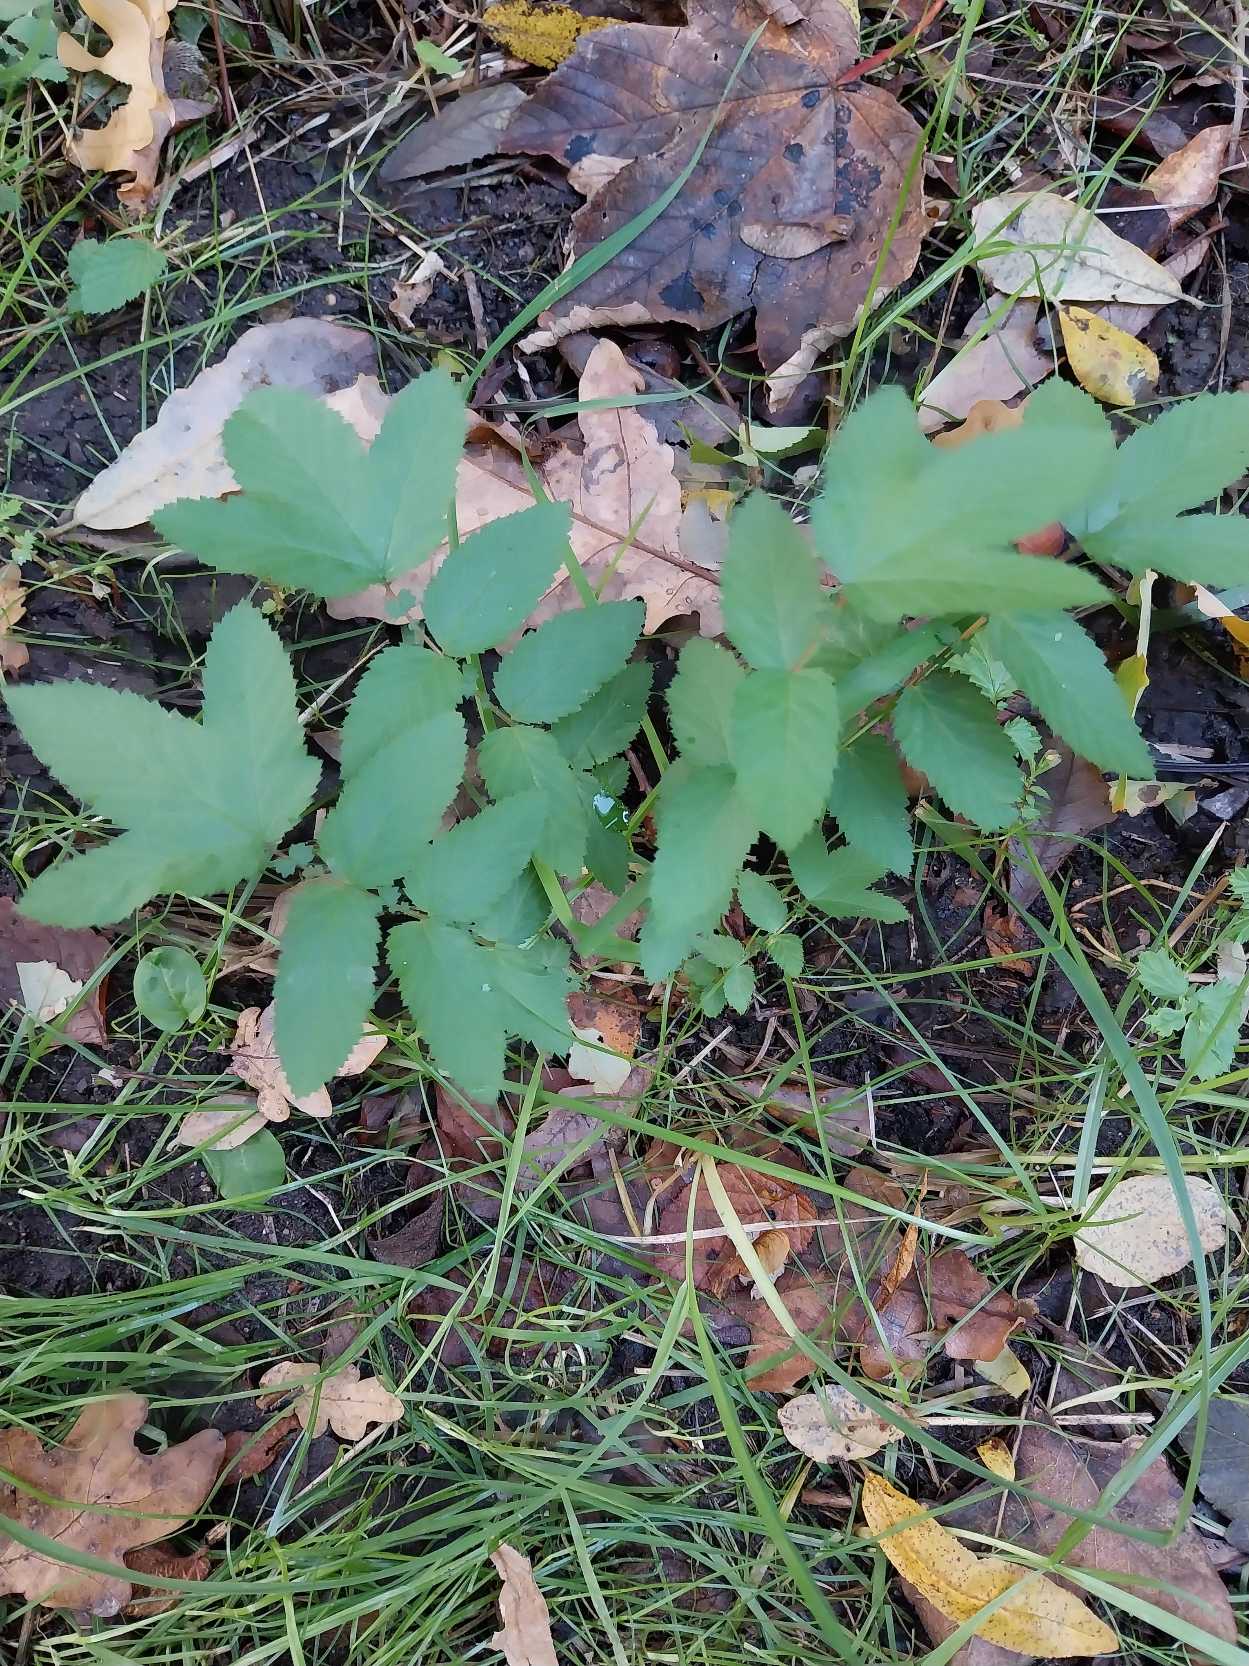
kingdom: Plantae
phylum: Tracheophyta
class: Magnoliopsida
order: Rosales
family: Rosaceae
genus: Filipendula
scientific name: Filipendula ulmaria
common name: Almindelig mjødurt
